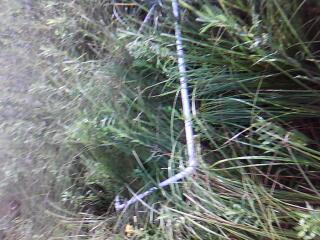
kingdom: Plantae
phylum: Tracheophyta
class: Magnoliopsida
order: Apiales
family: Apiaceae
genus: Zizia
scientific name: Zizia aurea
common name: Golden alexanders
